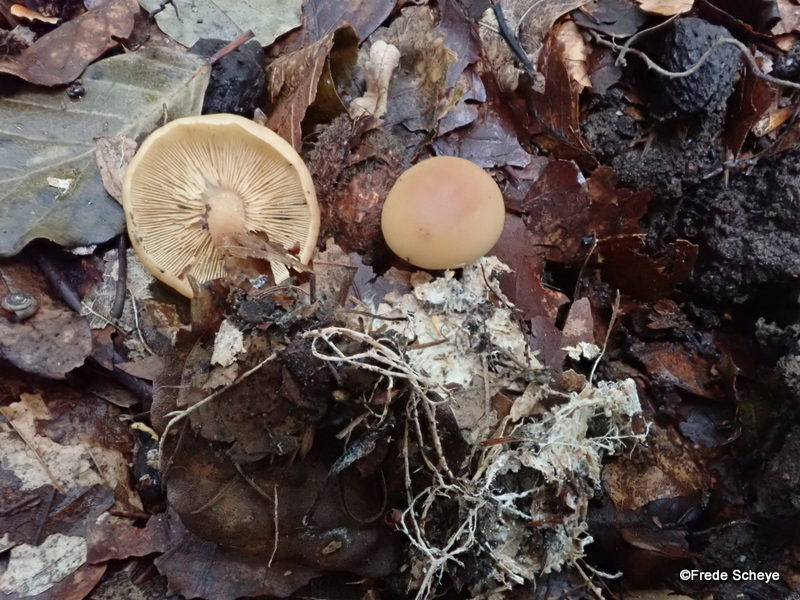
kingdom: Fungi
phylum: Basidiomycota
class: Agaricomycetes
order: Agaricales
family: Omphalotaceae
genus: Collybiopsis
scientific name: Collybiopsis peronata
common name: bestøvlet fladhat
